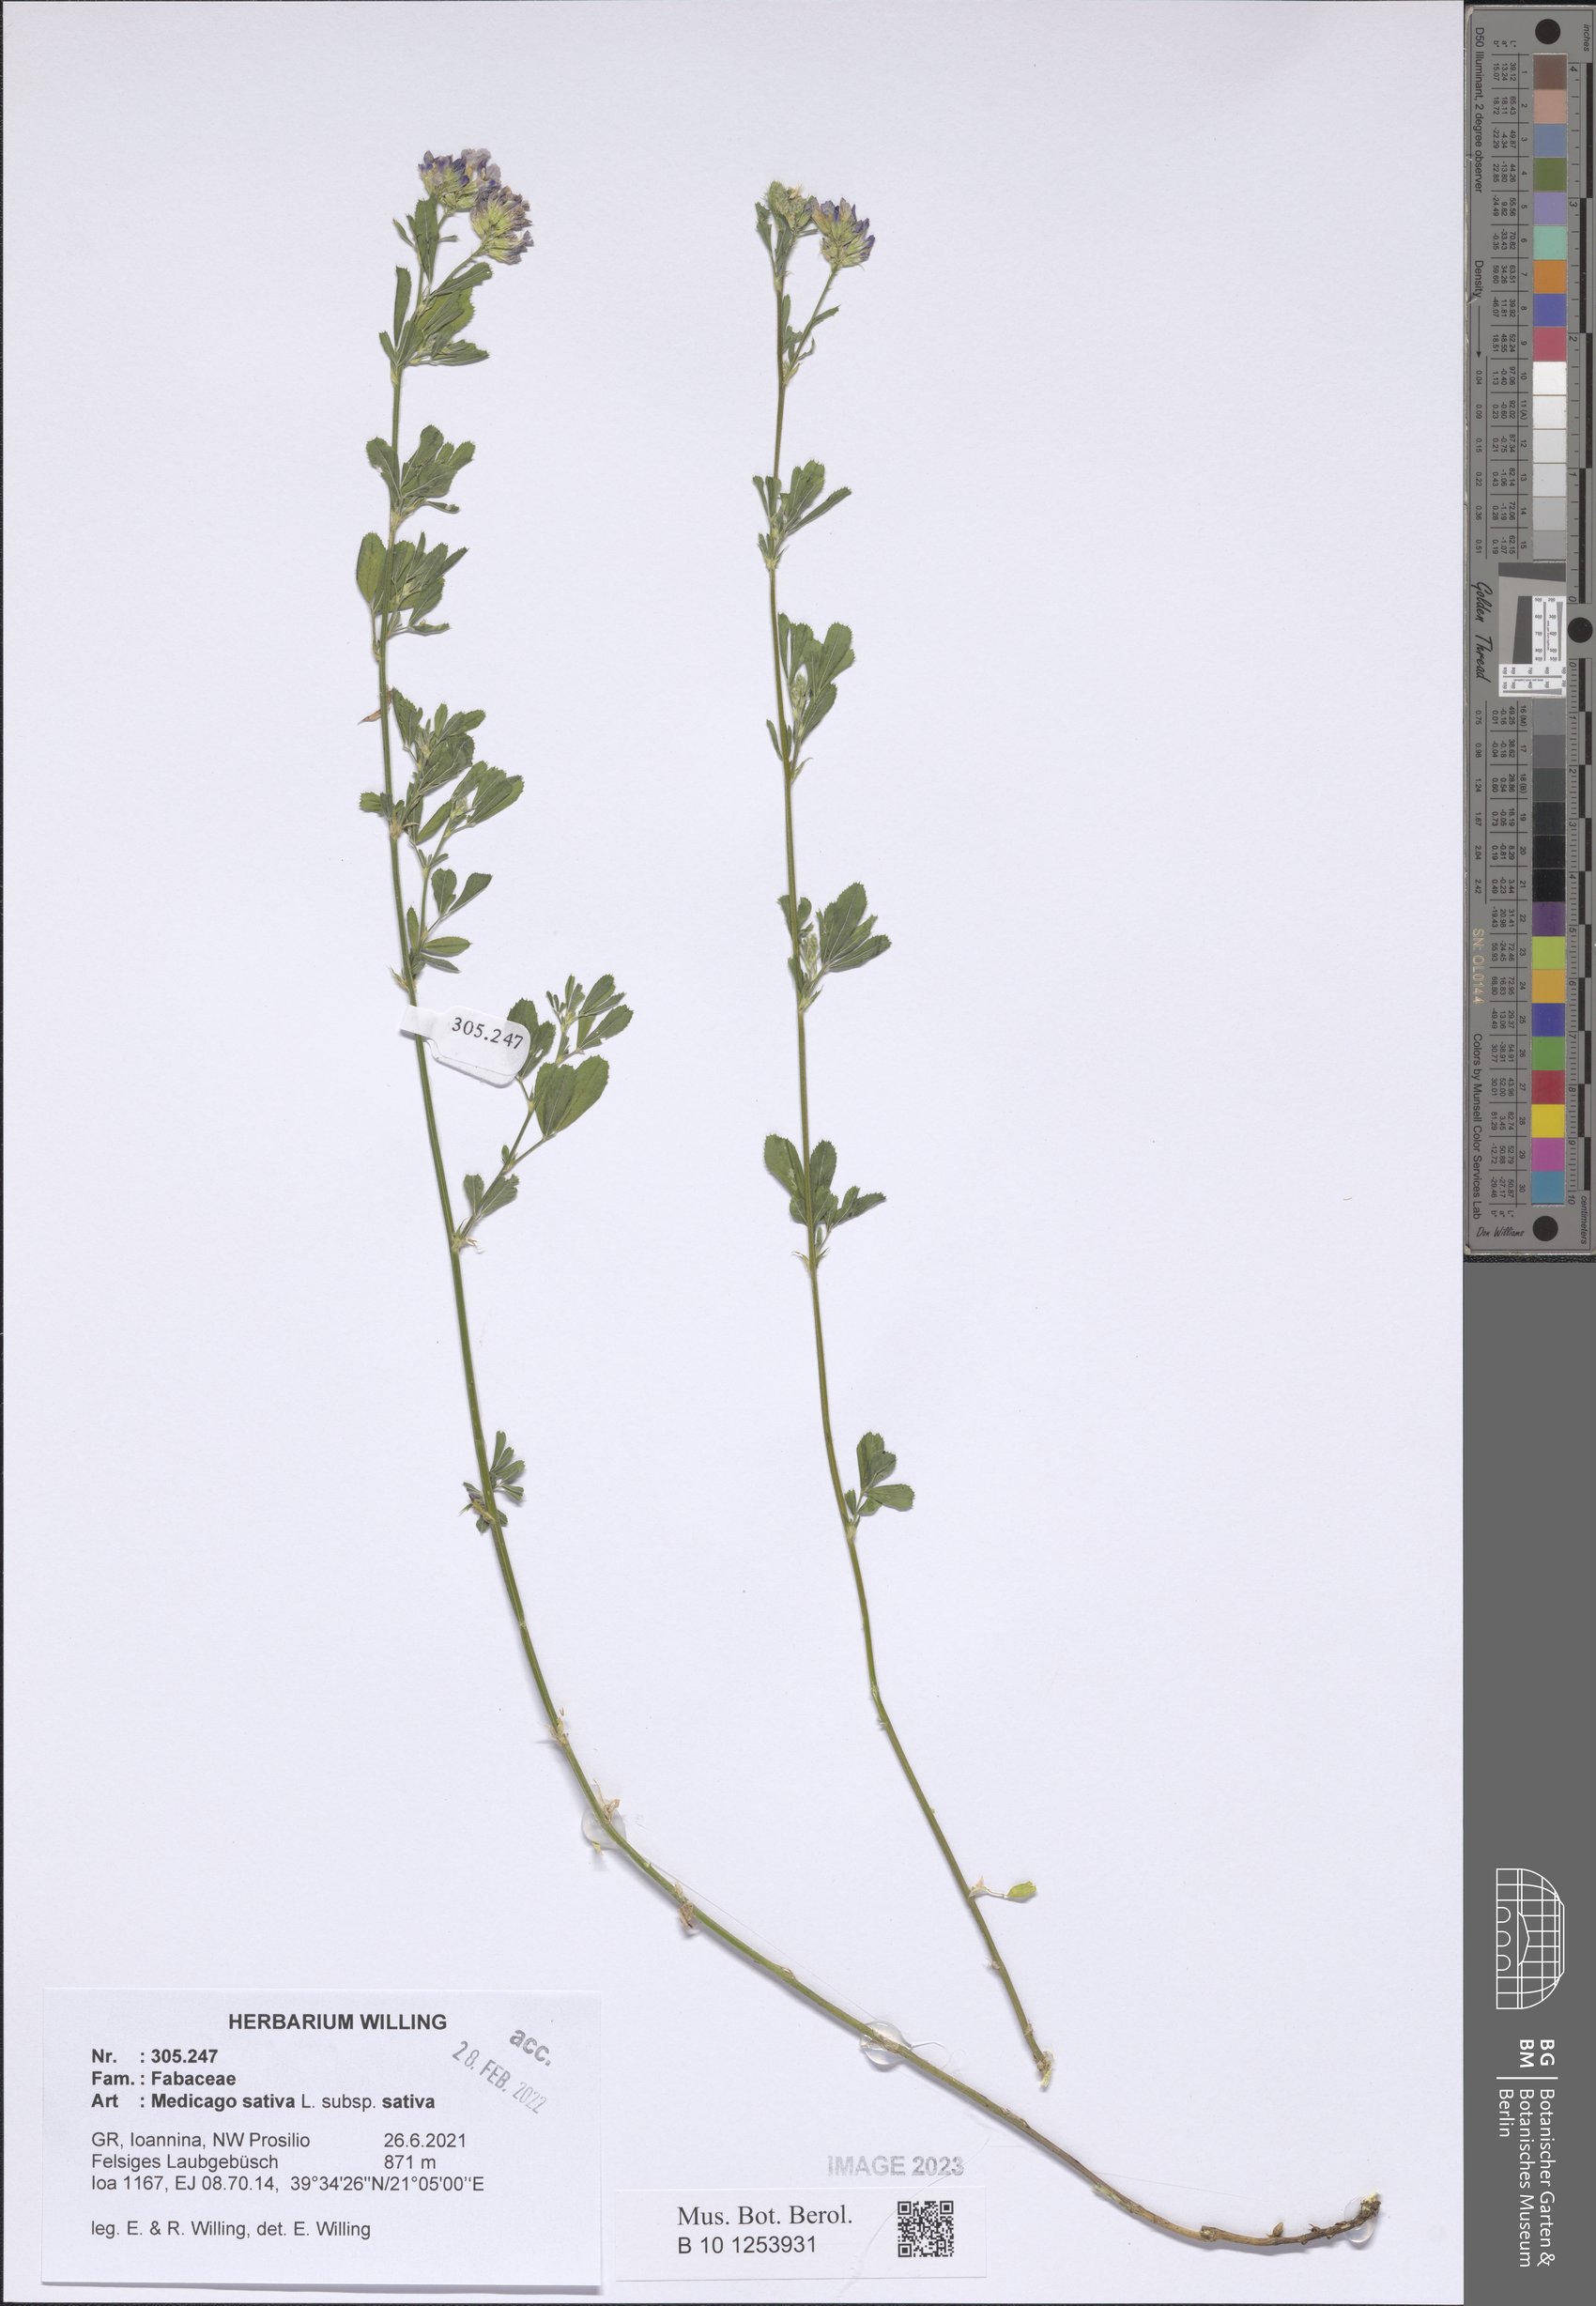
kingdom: Plantae
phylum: Tracheophyta
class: Magnoliopsida
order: Fabales
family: Fabaceae
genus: Medicago
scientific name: Medicago sativa
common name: Alfalfa
